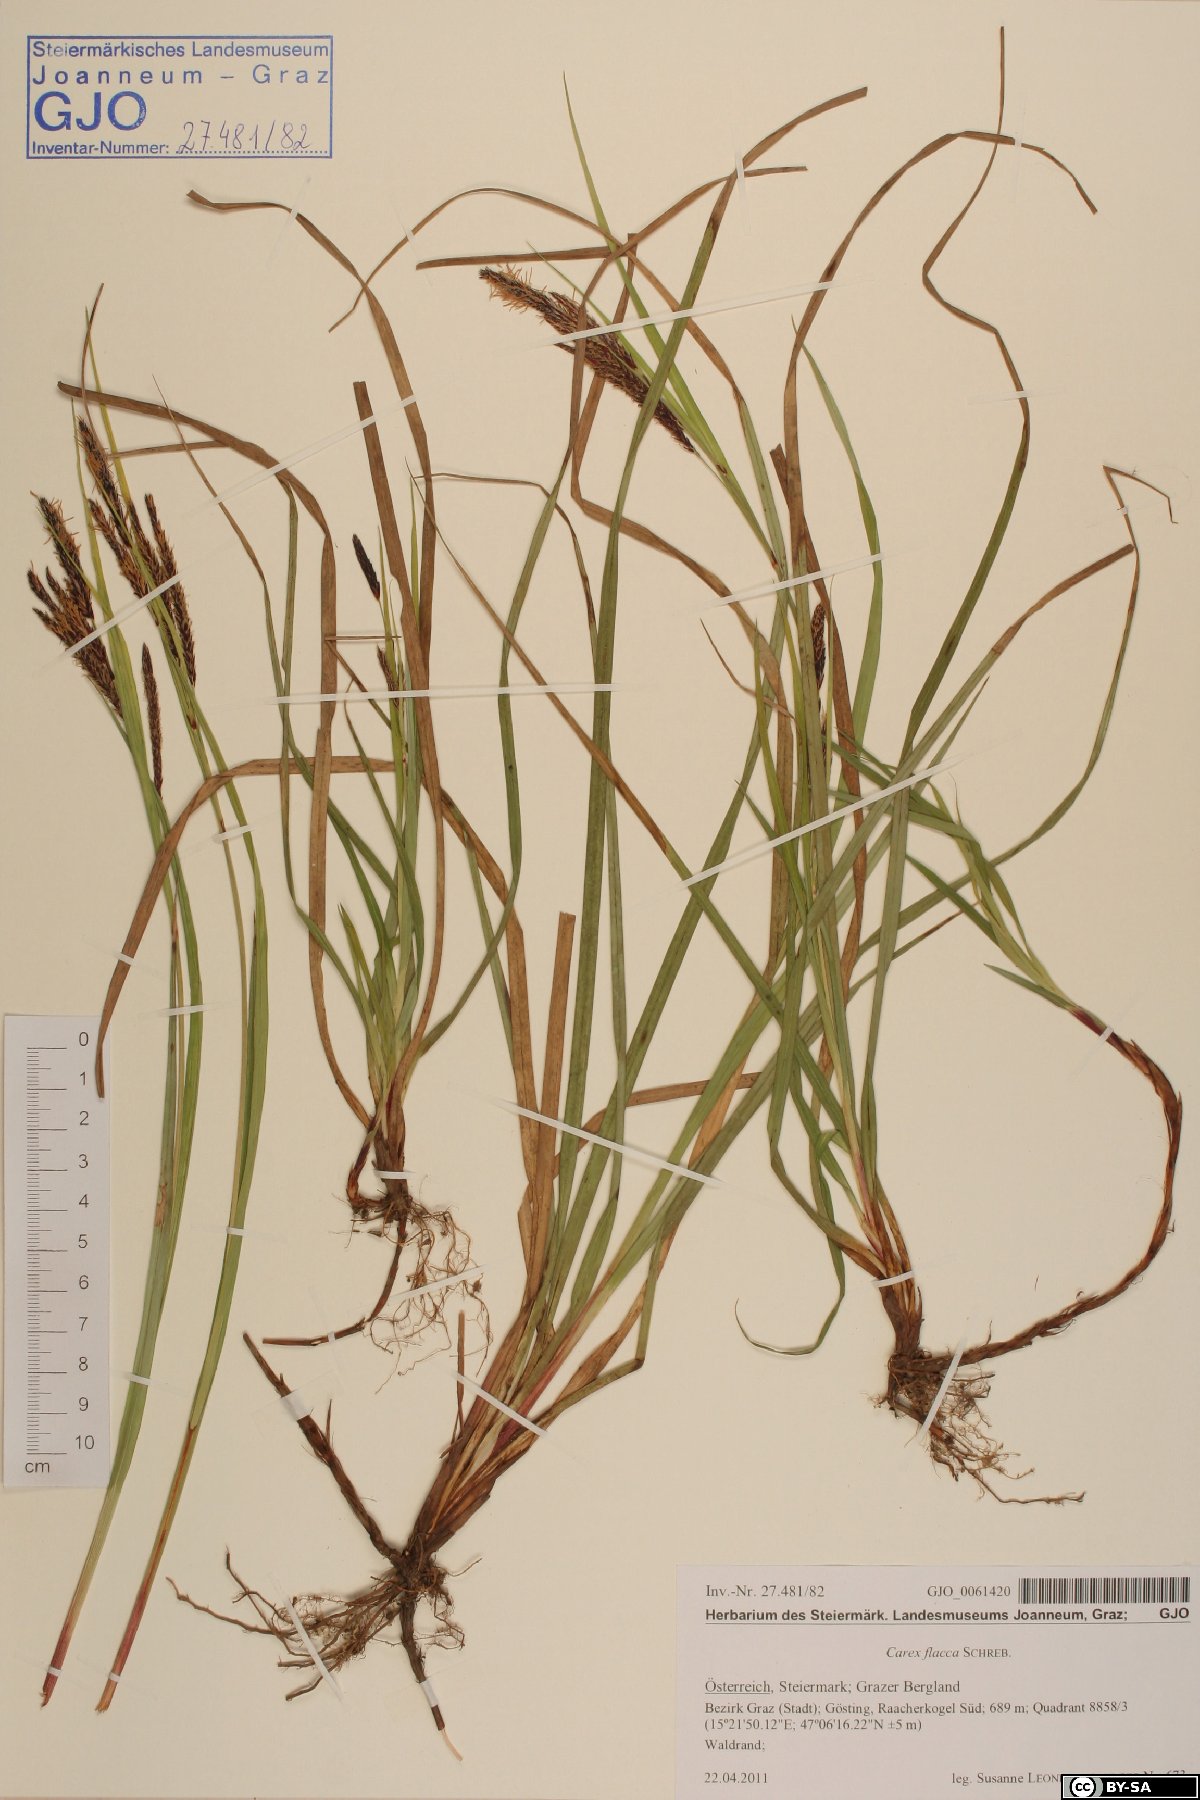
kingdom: Plantae
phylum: Tracheophyta
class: Liliopsida
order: Poales
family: Cyperaceae
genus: Carex
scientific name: Carex flacca
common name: Glaucous sedge
